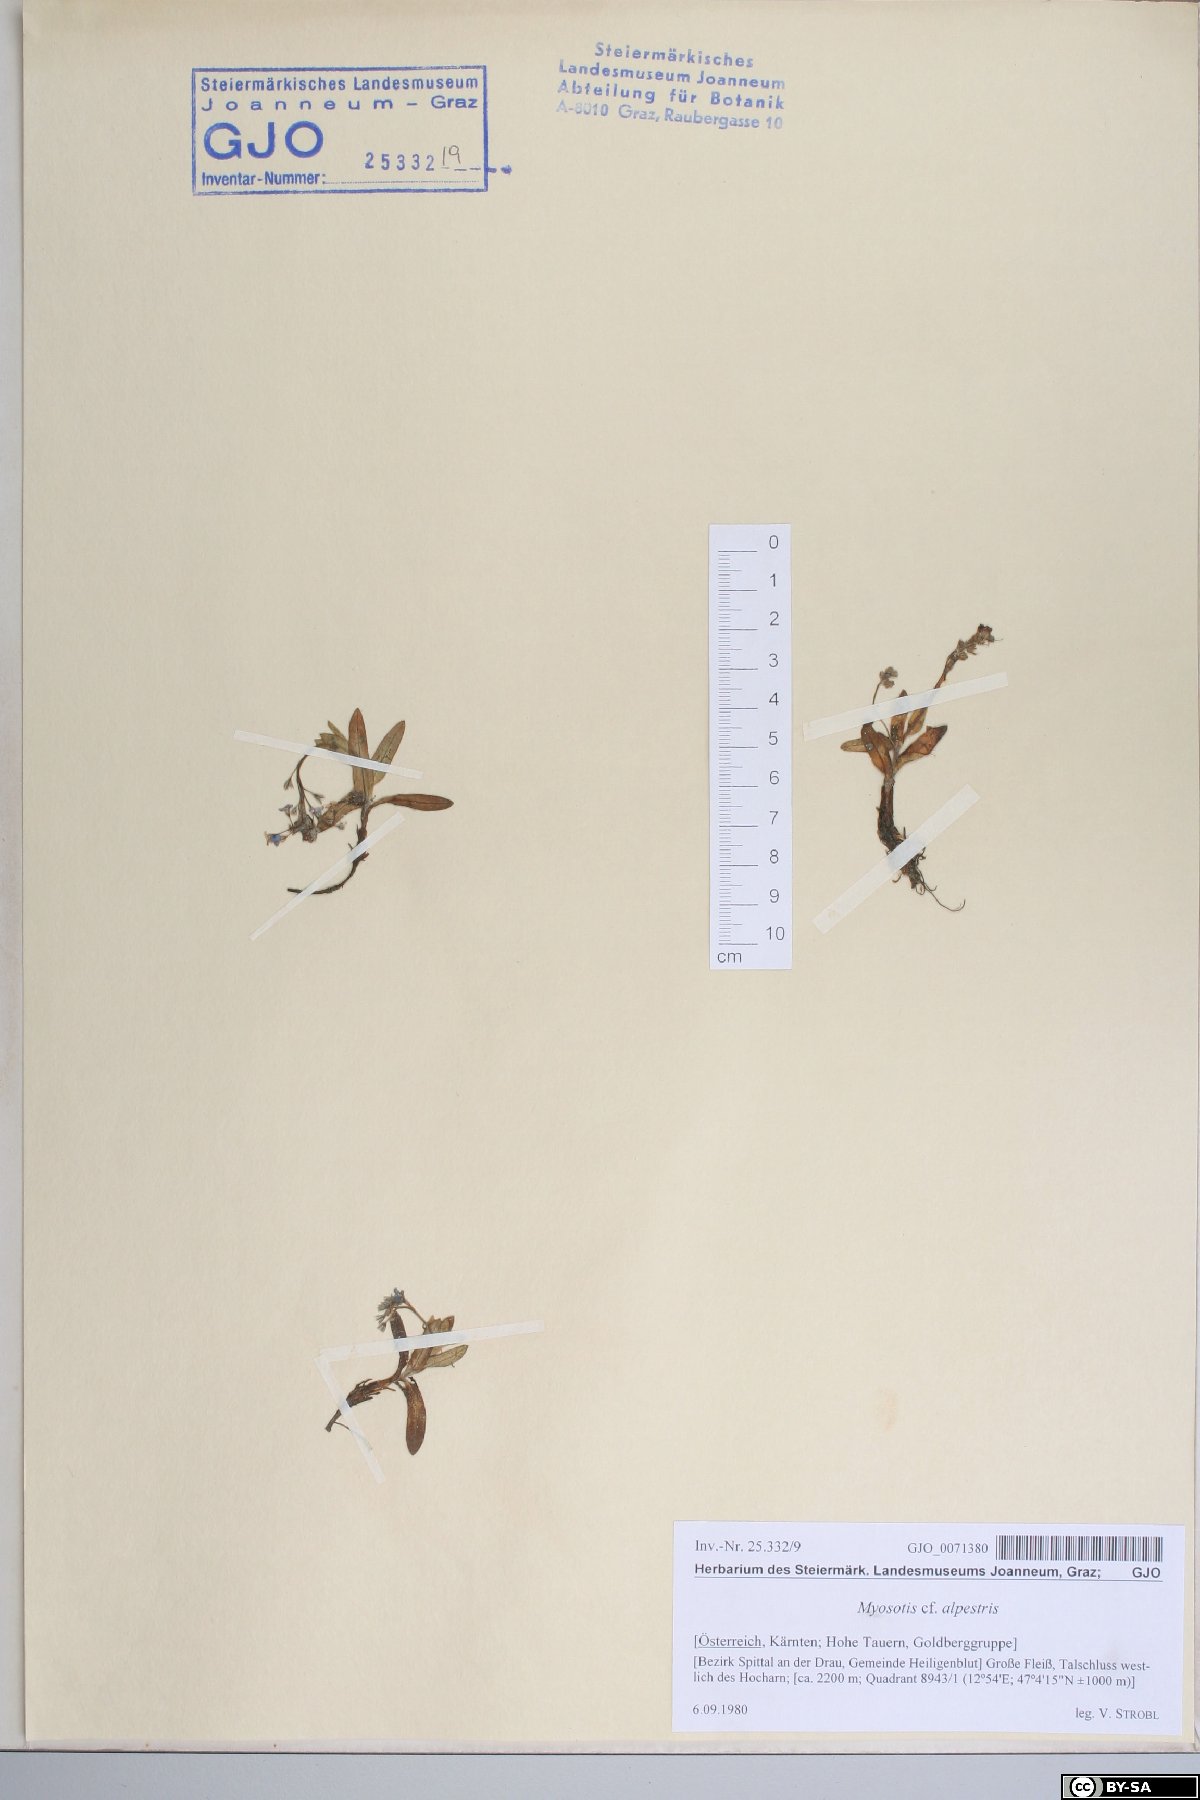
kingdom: Plantae
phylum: Tracheophyta
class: Magnoliopsida
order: Boraginales
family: Boraginaceae
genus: Myosotis
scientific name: Myosotis alpestris
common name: Alpine forget-me-not
